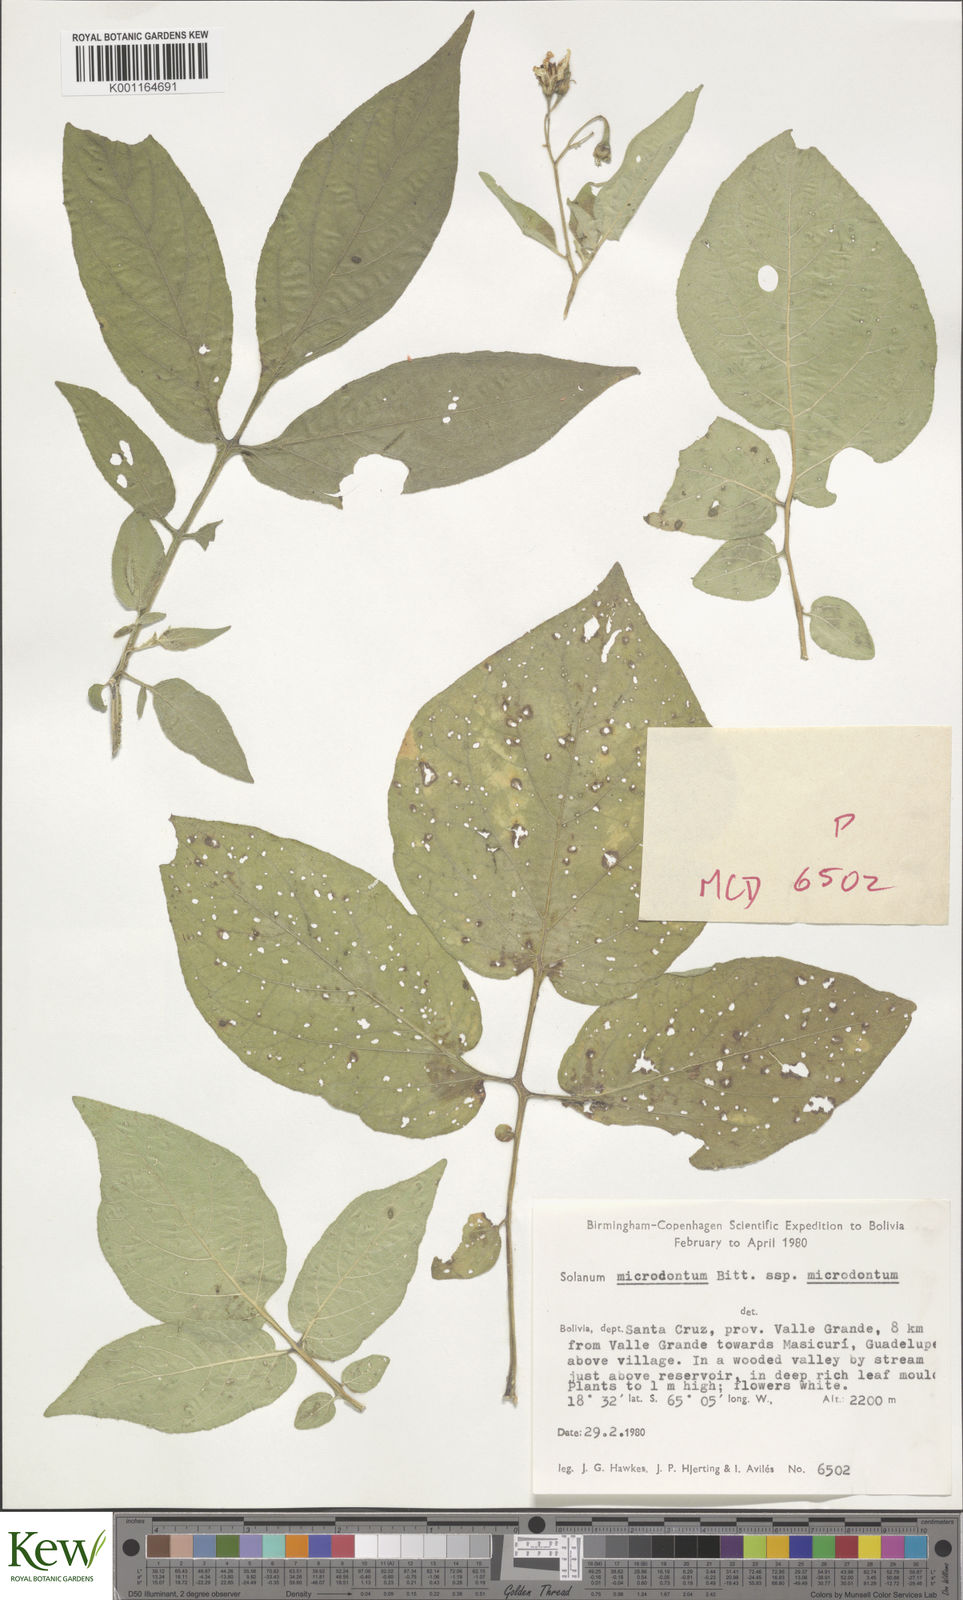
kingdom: Plantae
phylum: Tracheophyta
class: Magnoliopsida
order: Solanales
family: Solanaceae
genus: Solanum
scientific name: Solanum microdontum
